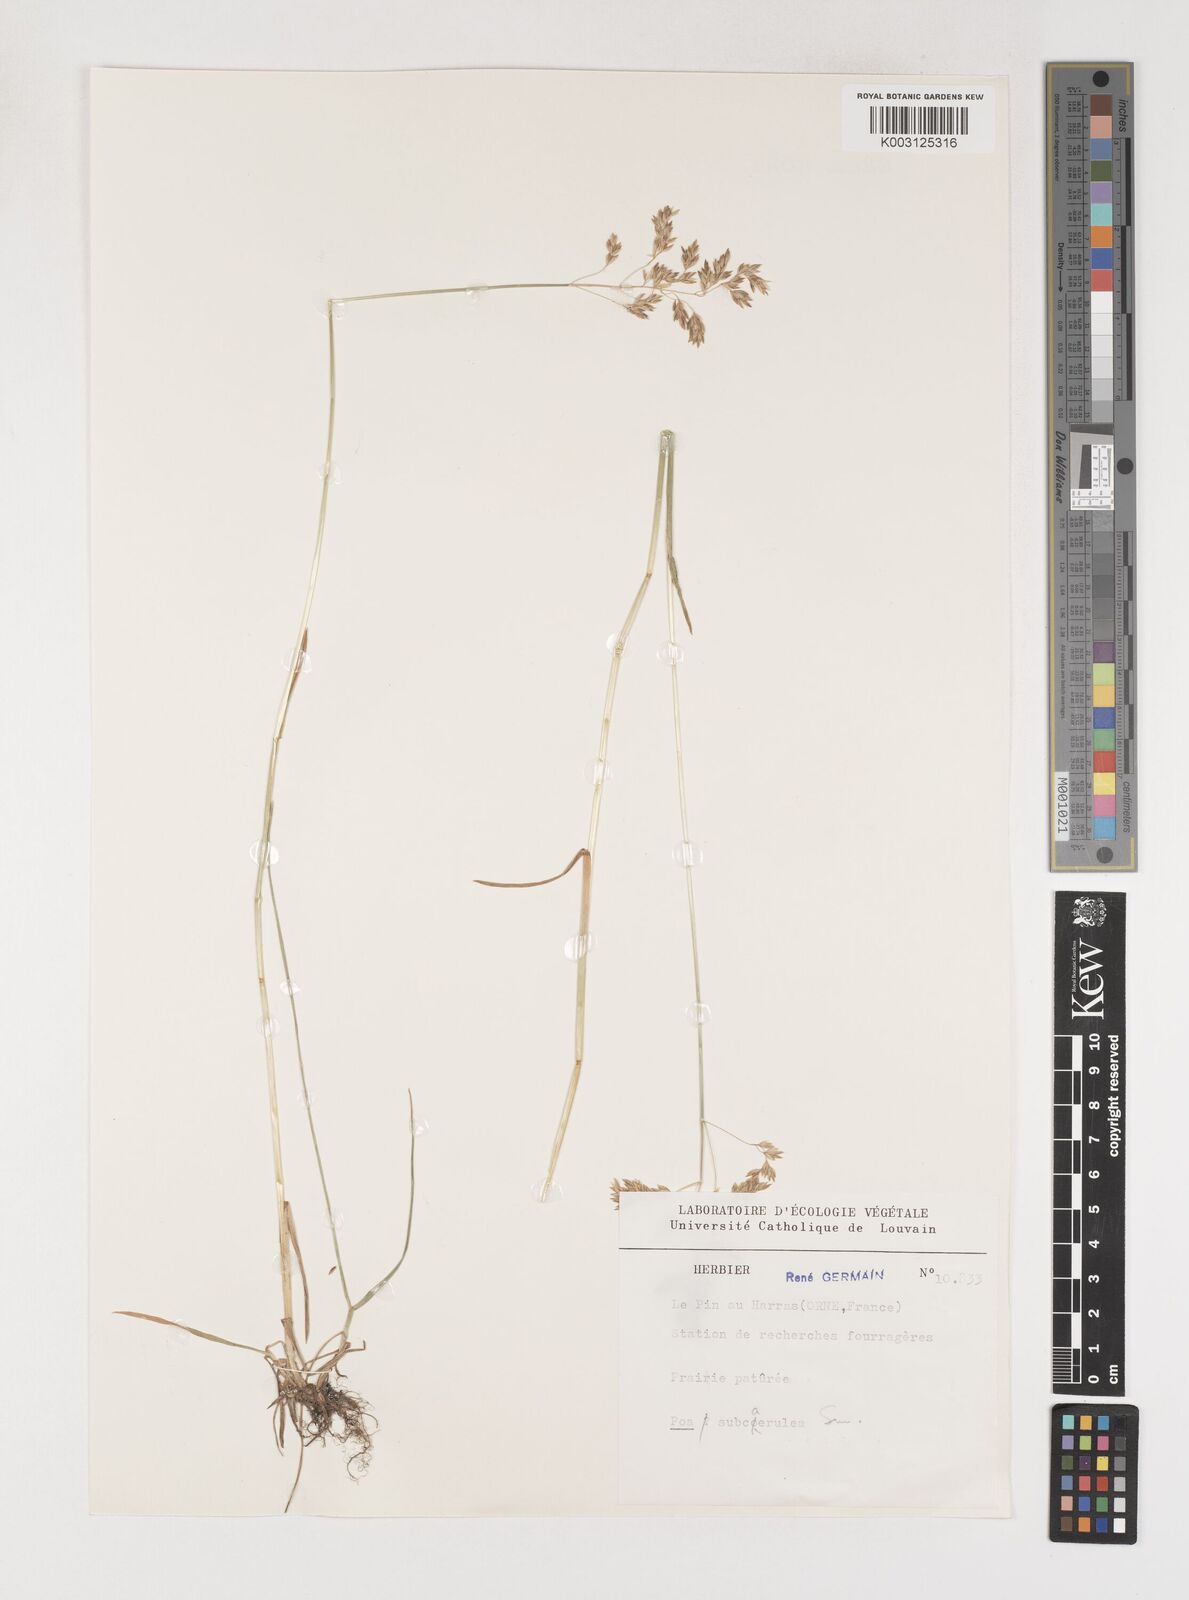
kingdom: Plantae
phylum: Tracheophyta
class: Liliopsida
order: Poales
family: Poaceae
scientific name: Poaceae
